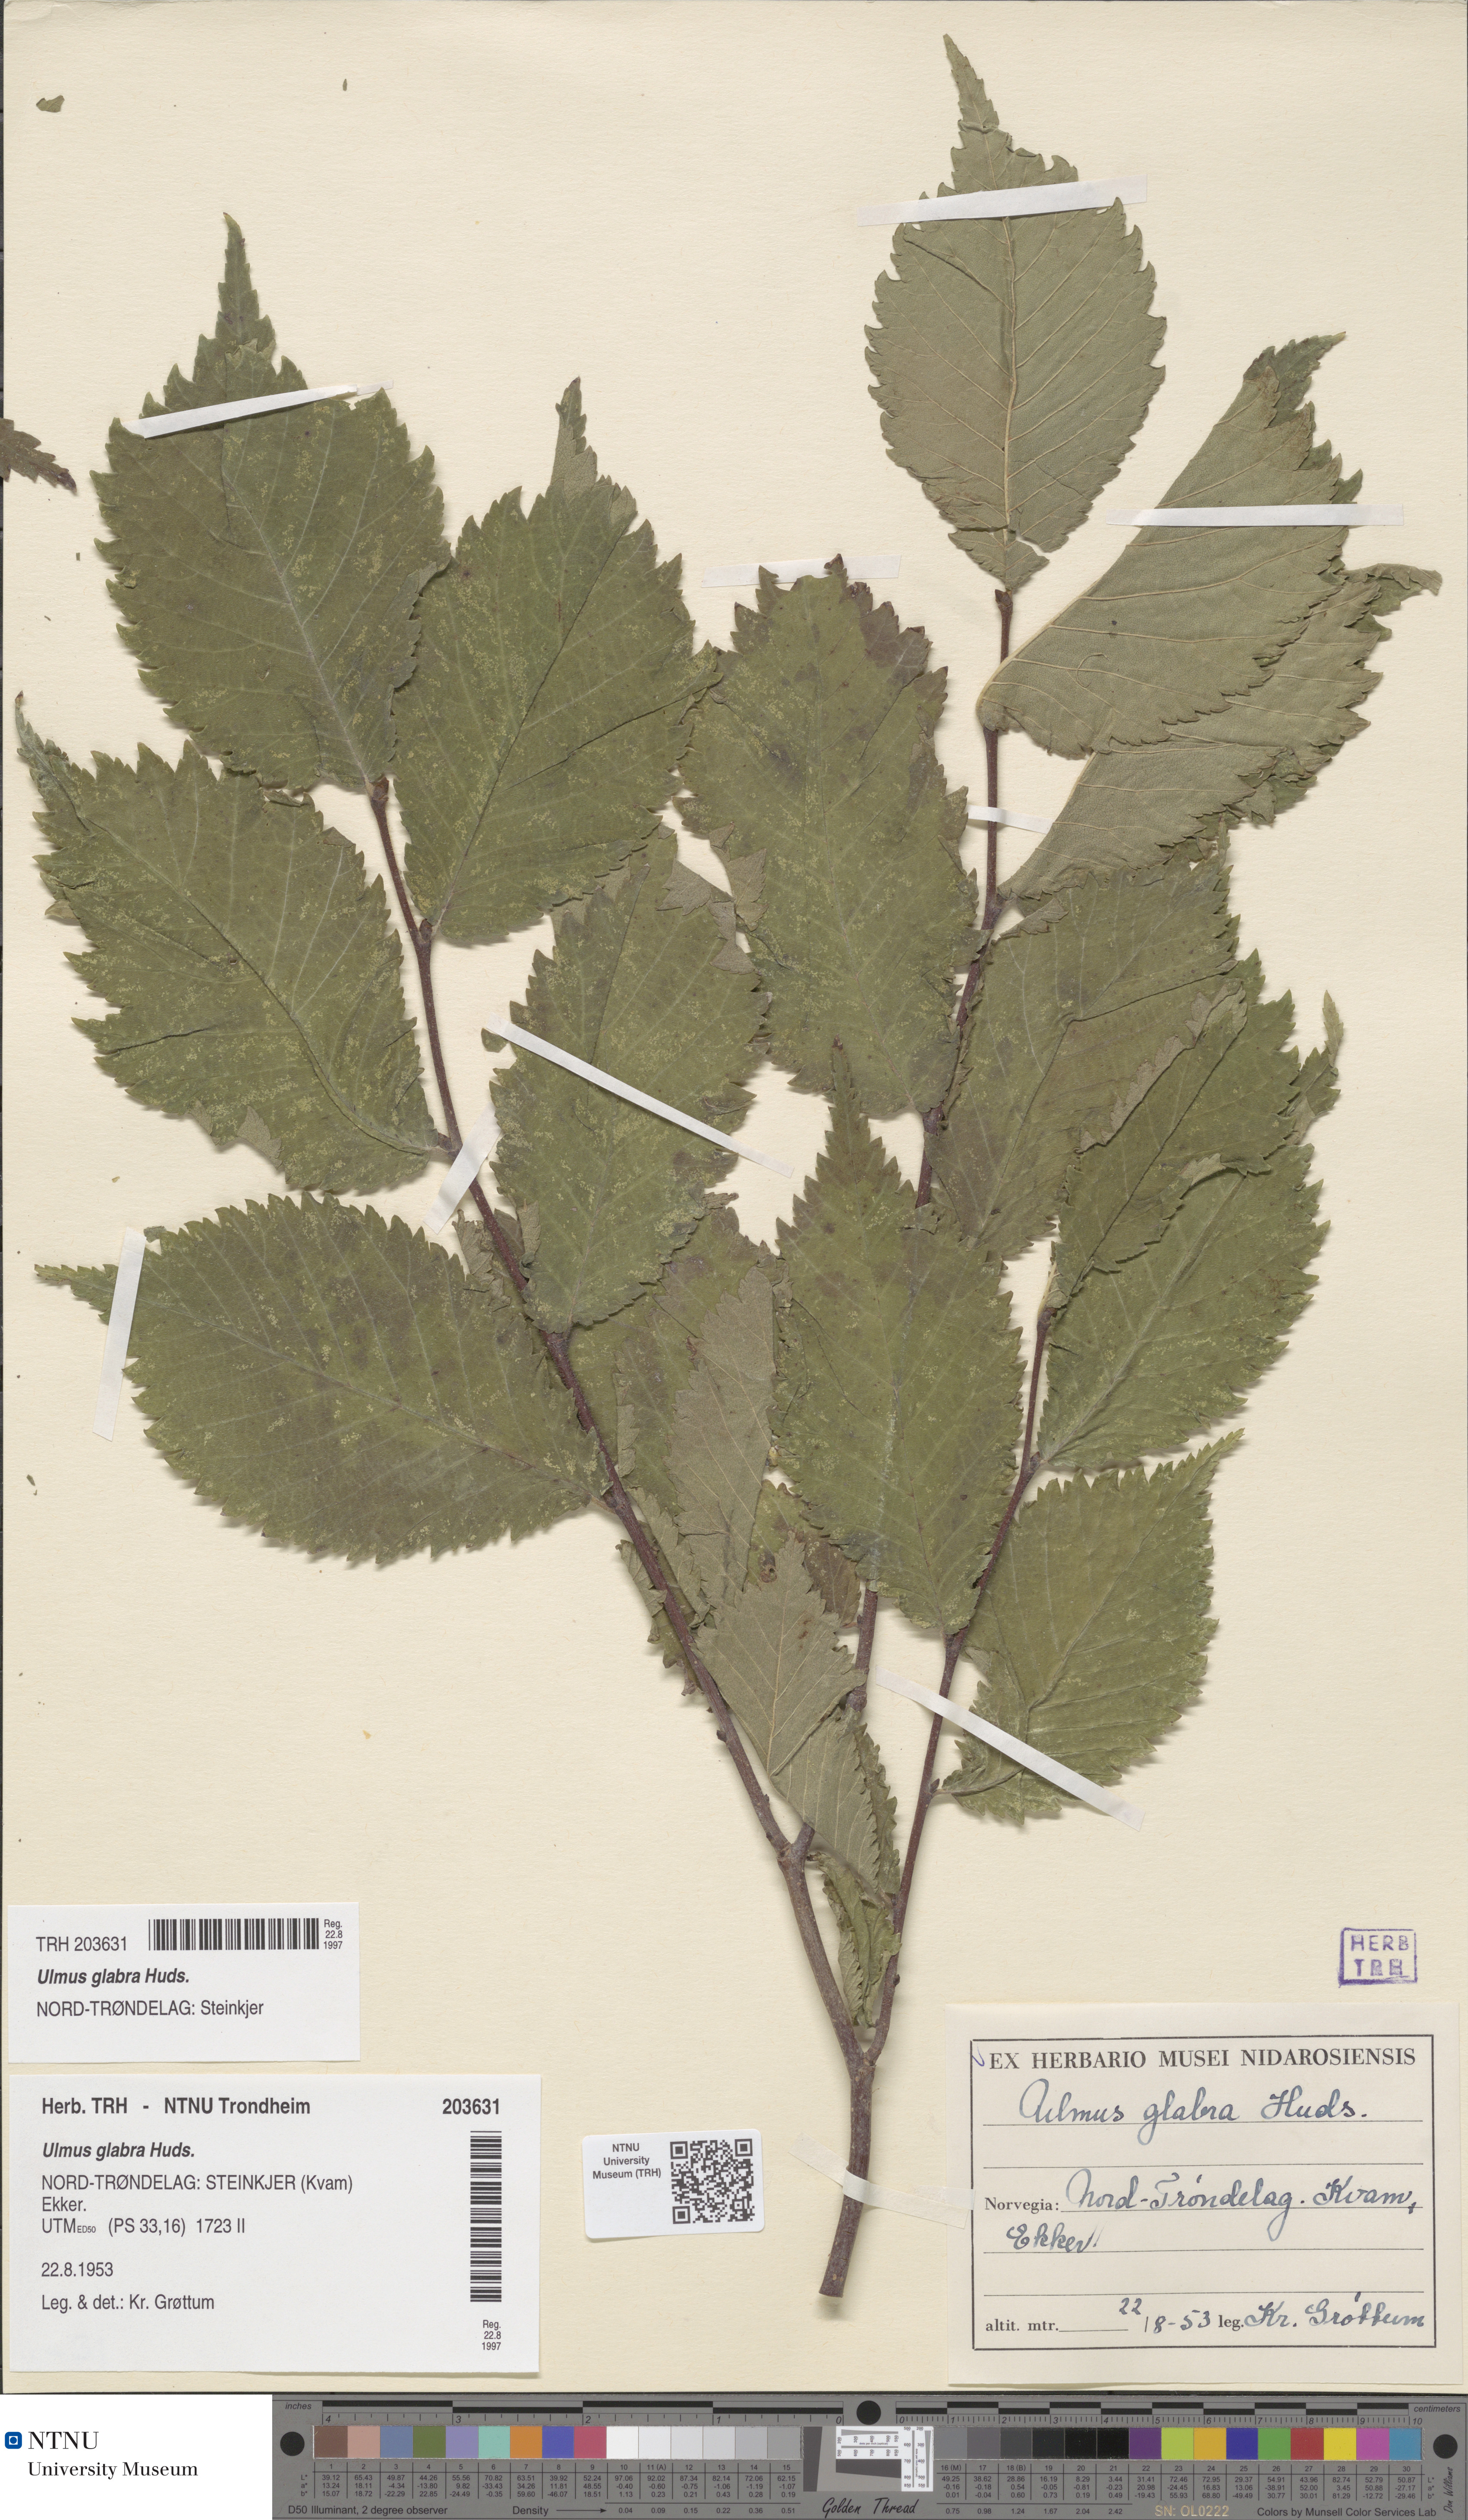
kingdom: Plantae
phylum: Tracheophyta
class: Magnoliopsida
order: Rosales
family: Ulmaceae
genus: Ulmus
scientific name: Ulmus glabra
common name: Wych elm
